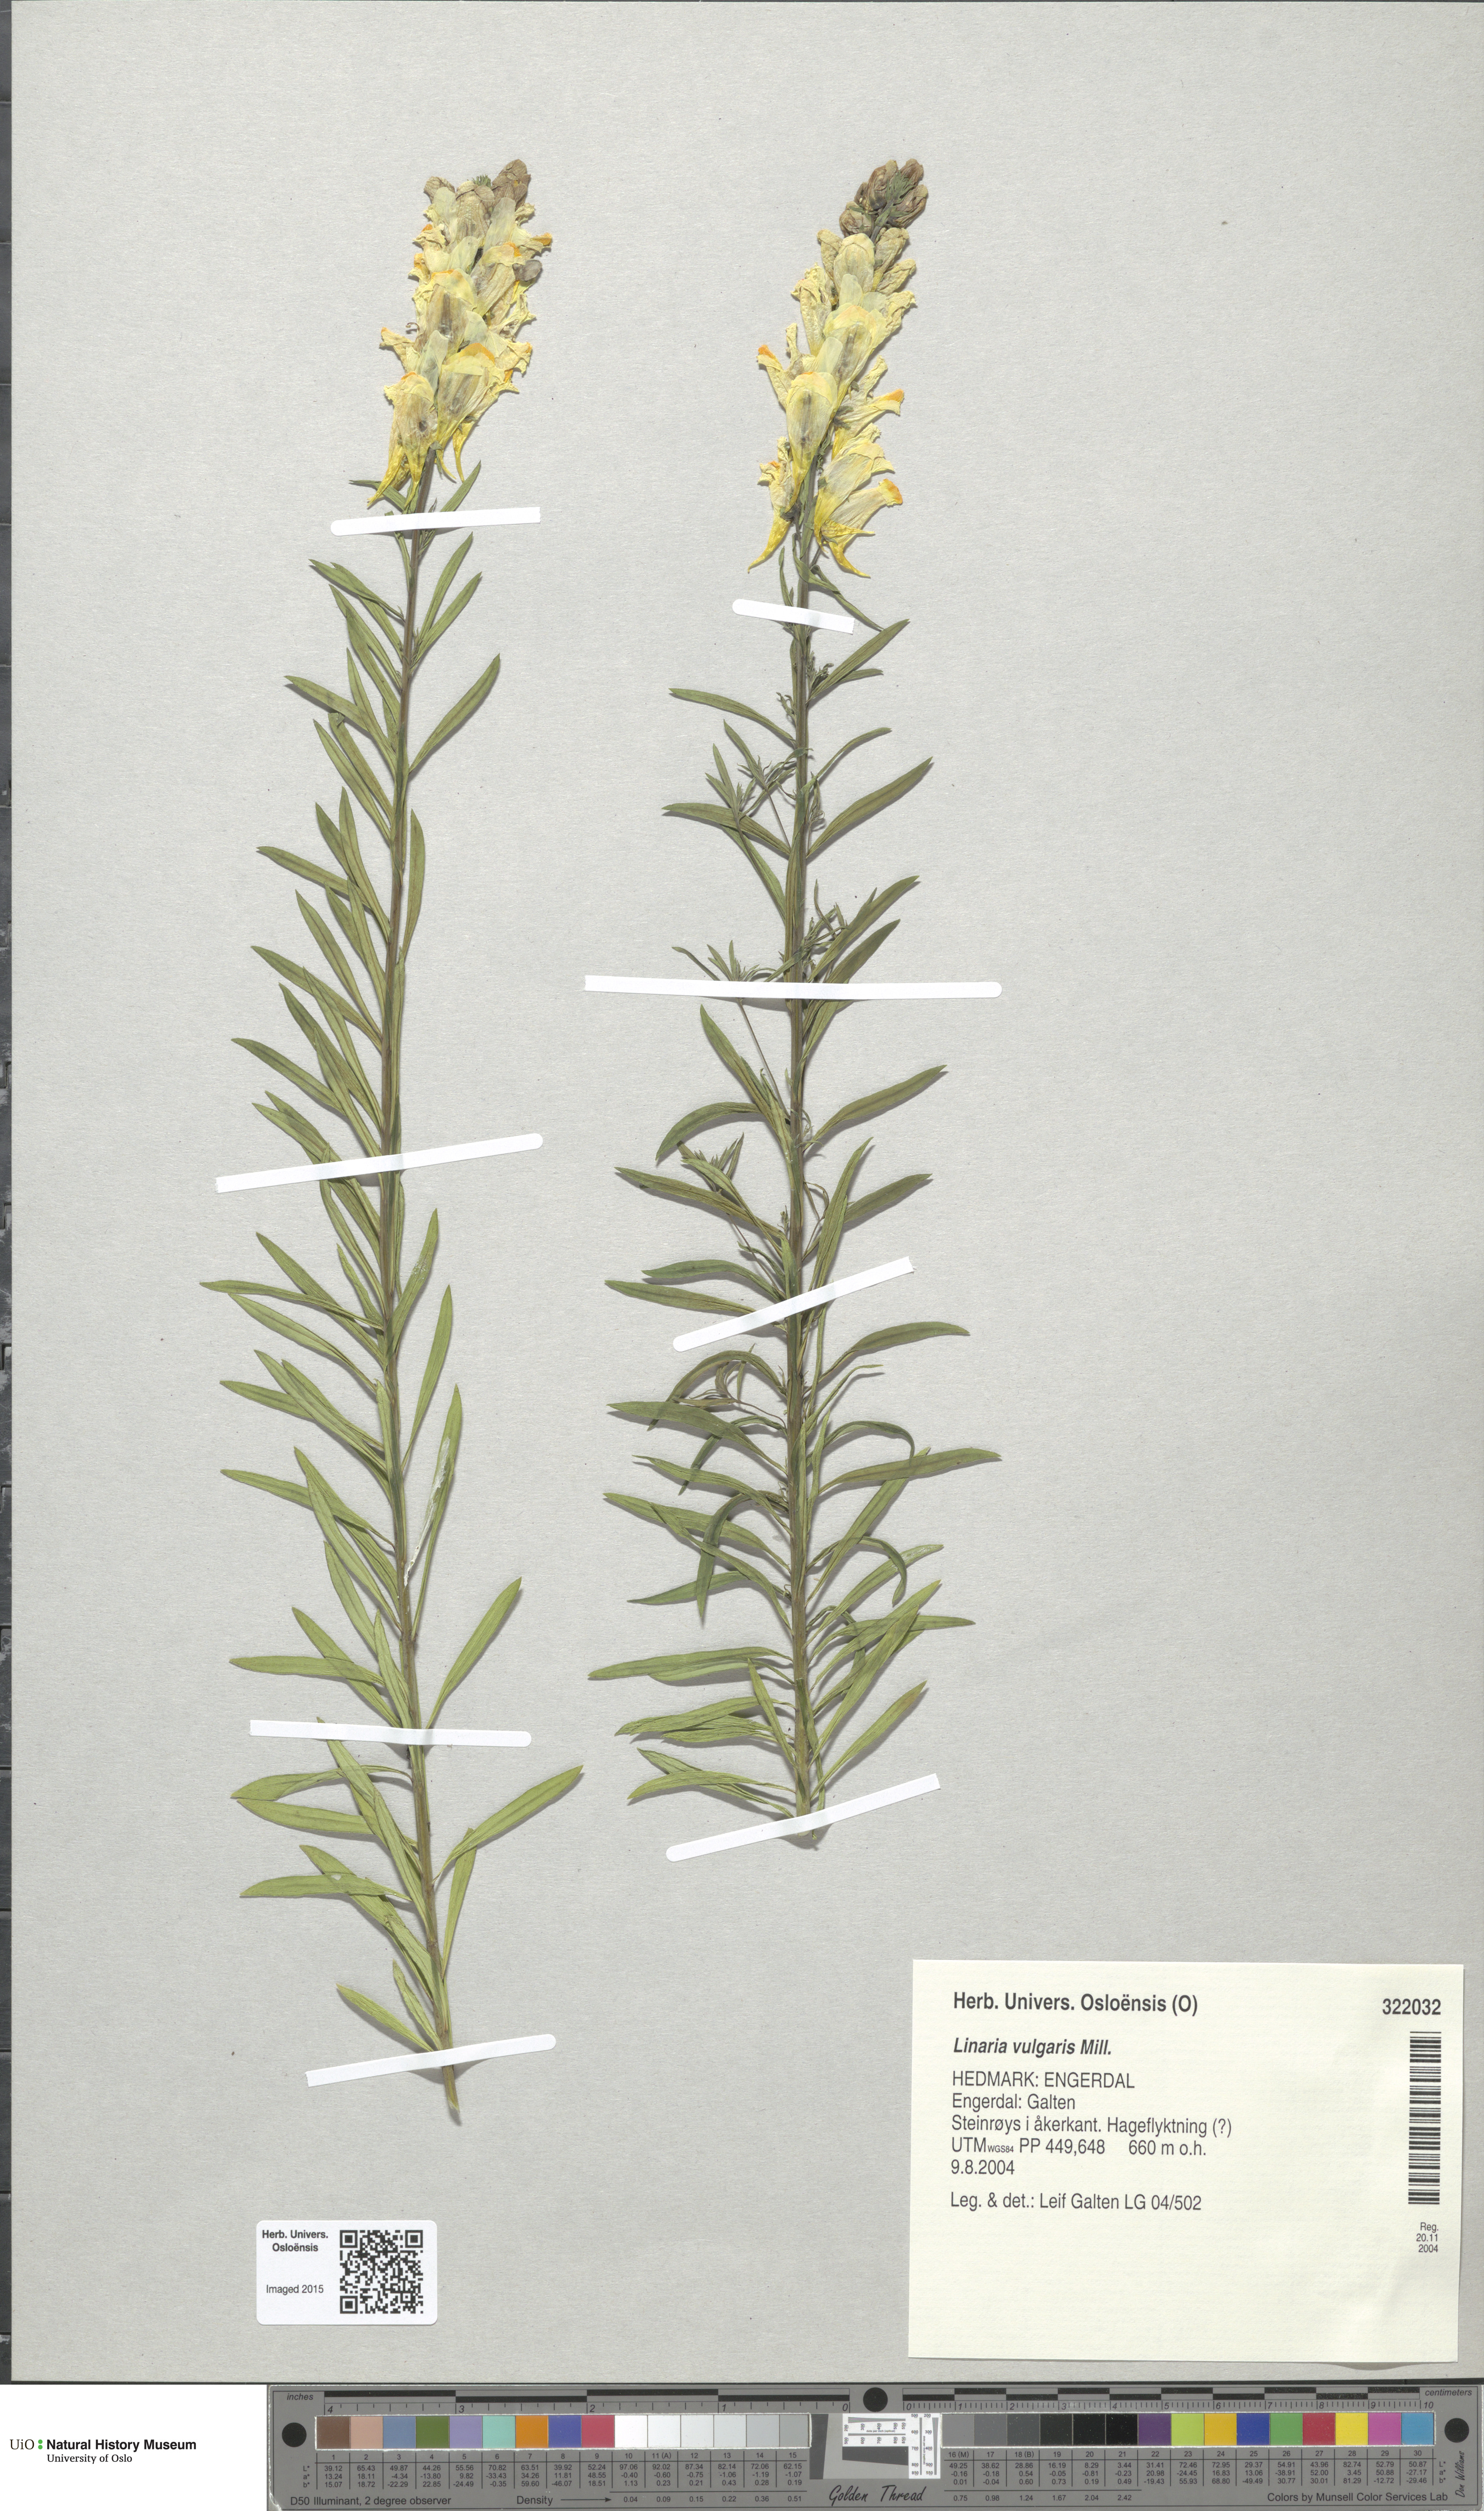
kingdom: Plantae
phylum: Tracheophyta
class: Magnoliopsida
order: Lamiales
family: Plantaginaceae
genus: Linaria
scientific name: Linaria vulgaris
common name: Butter and eggs
